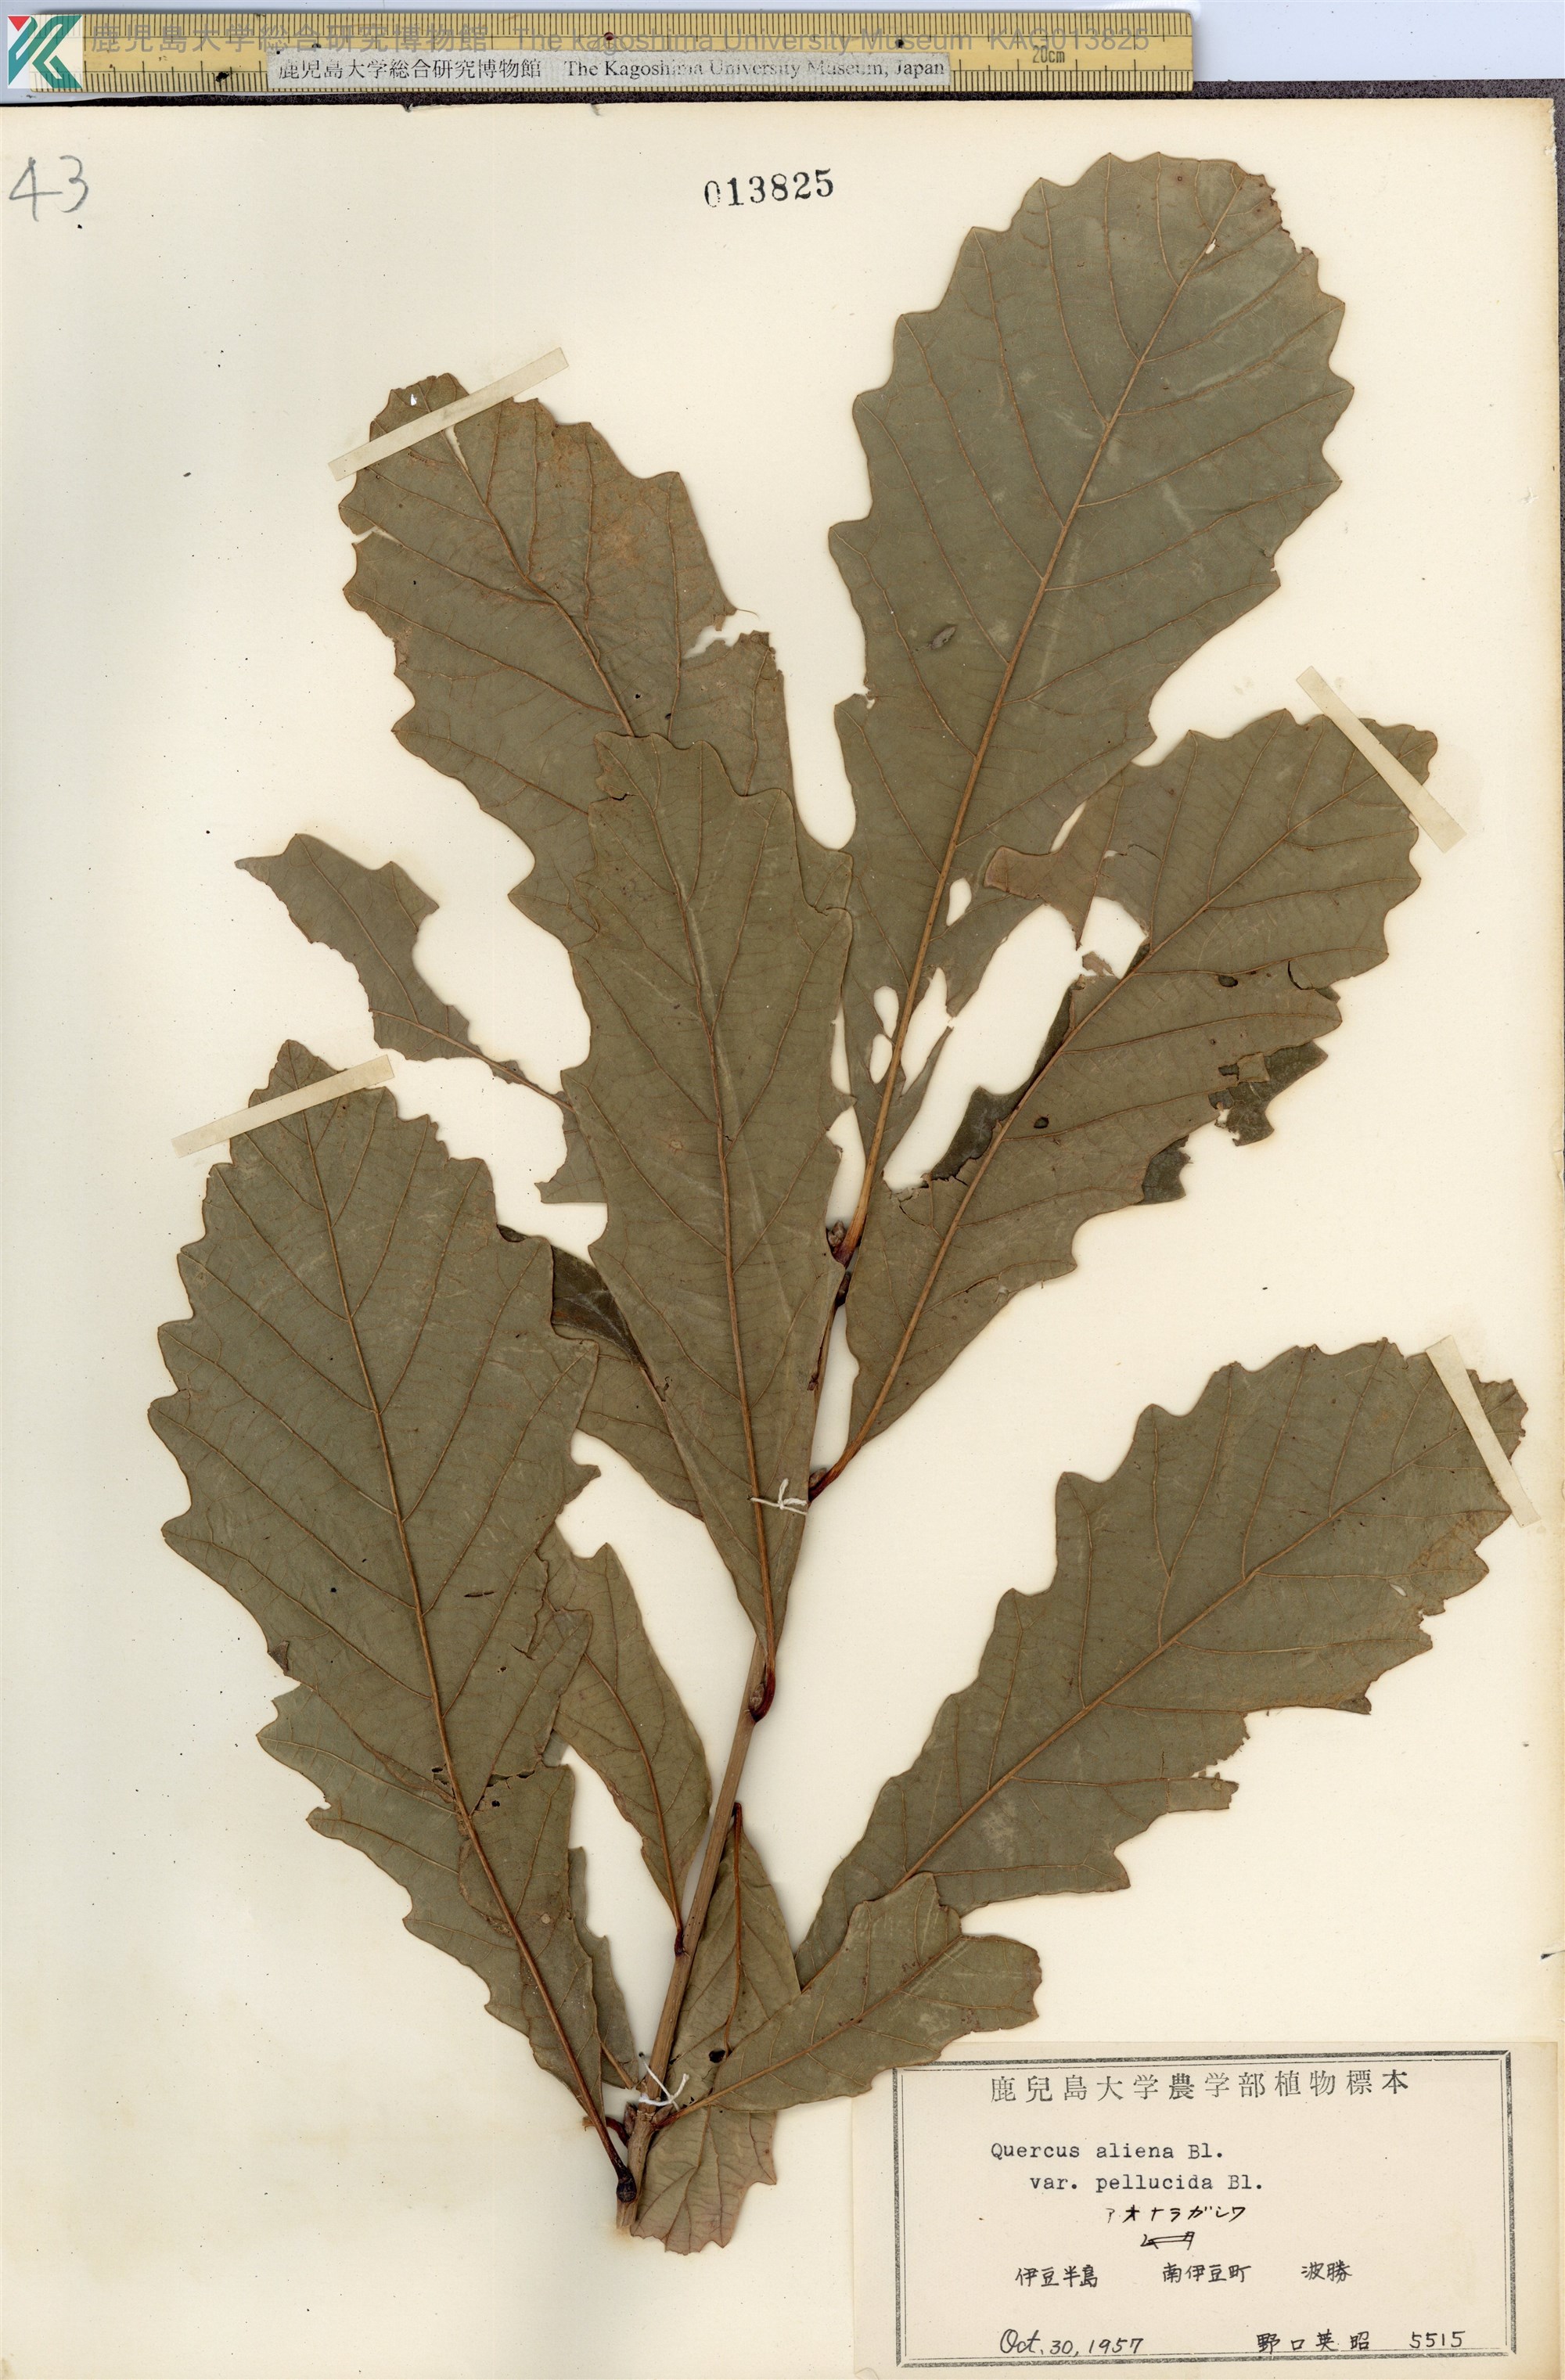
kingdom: Plantae
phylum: Tracheophyta
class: Magnoliopsida
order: Fagales
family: Fagaceae
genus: Quercus
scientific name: Quercus aliena
